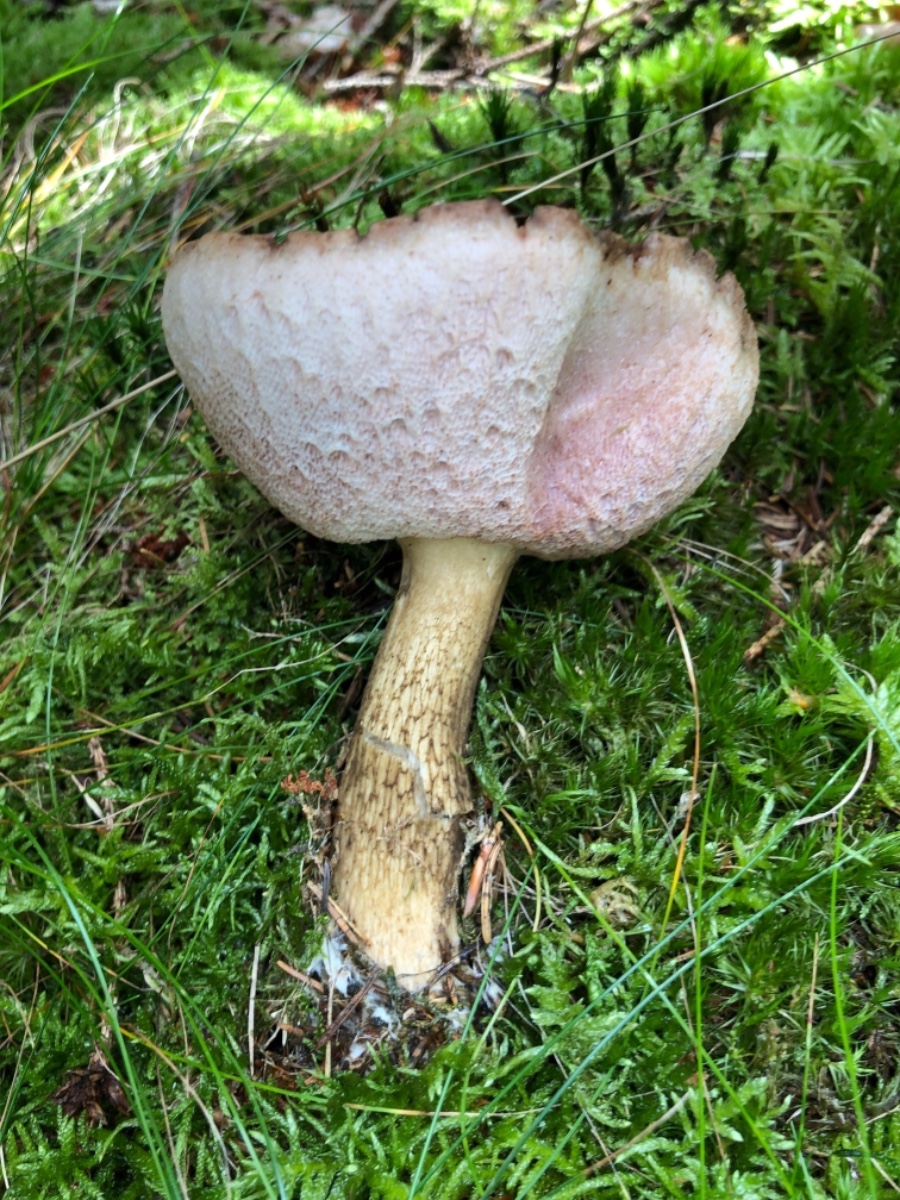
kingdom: Fungi
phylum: Basidiomycota
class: Agaricomycetes
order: Boletales
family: Boletaceae
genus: Tylopilus
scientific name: Tylopilus felleus
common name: galderørhat
